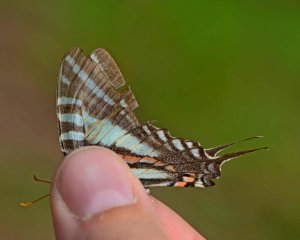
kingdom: Animalia
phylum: Arthropoda
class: Insecta
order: Lepidoptera
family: Papilionidae
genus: Protographium
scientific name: Protographium marcellus
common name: Zebra Swallowtail
